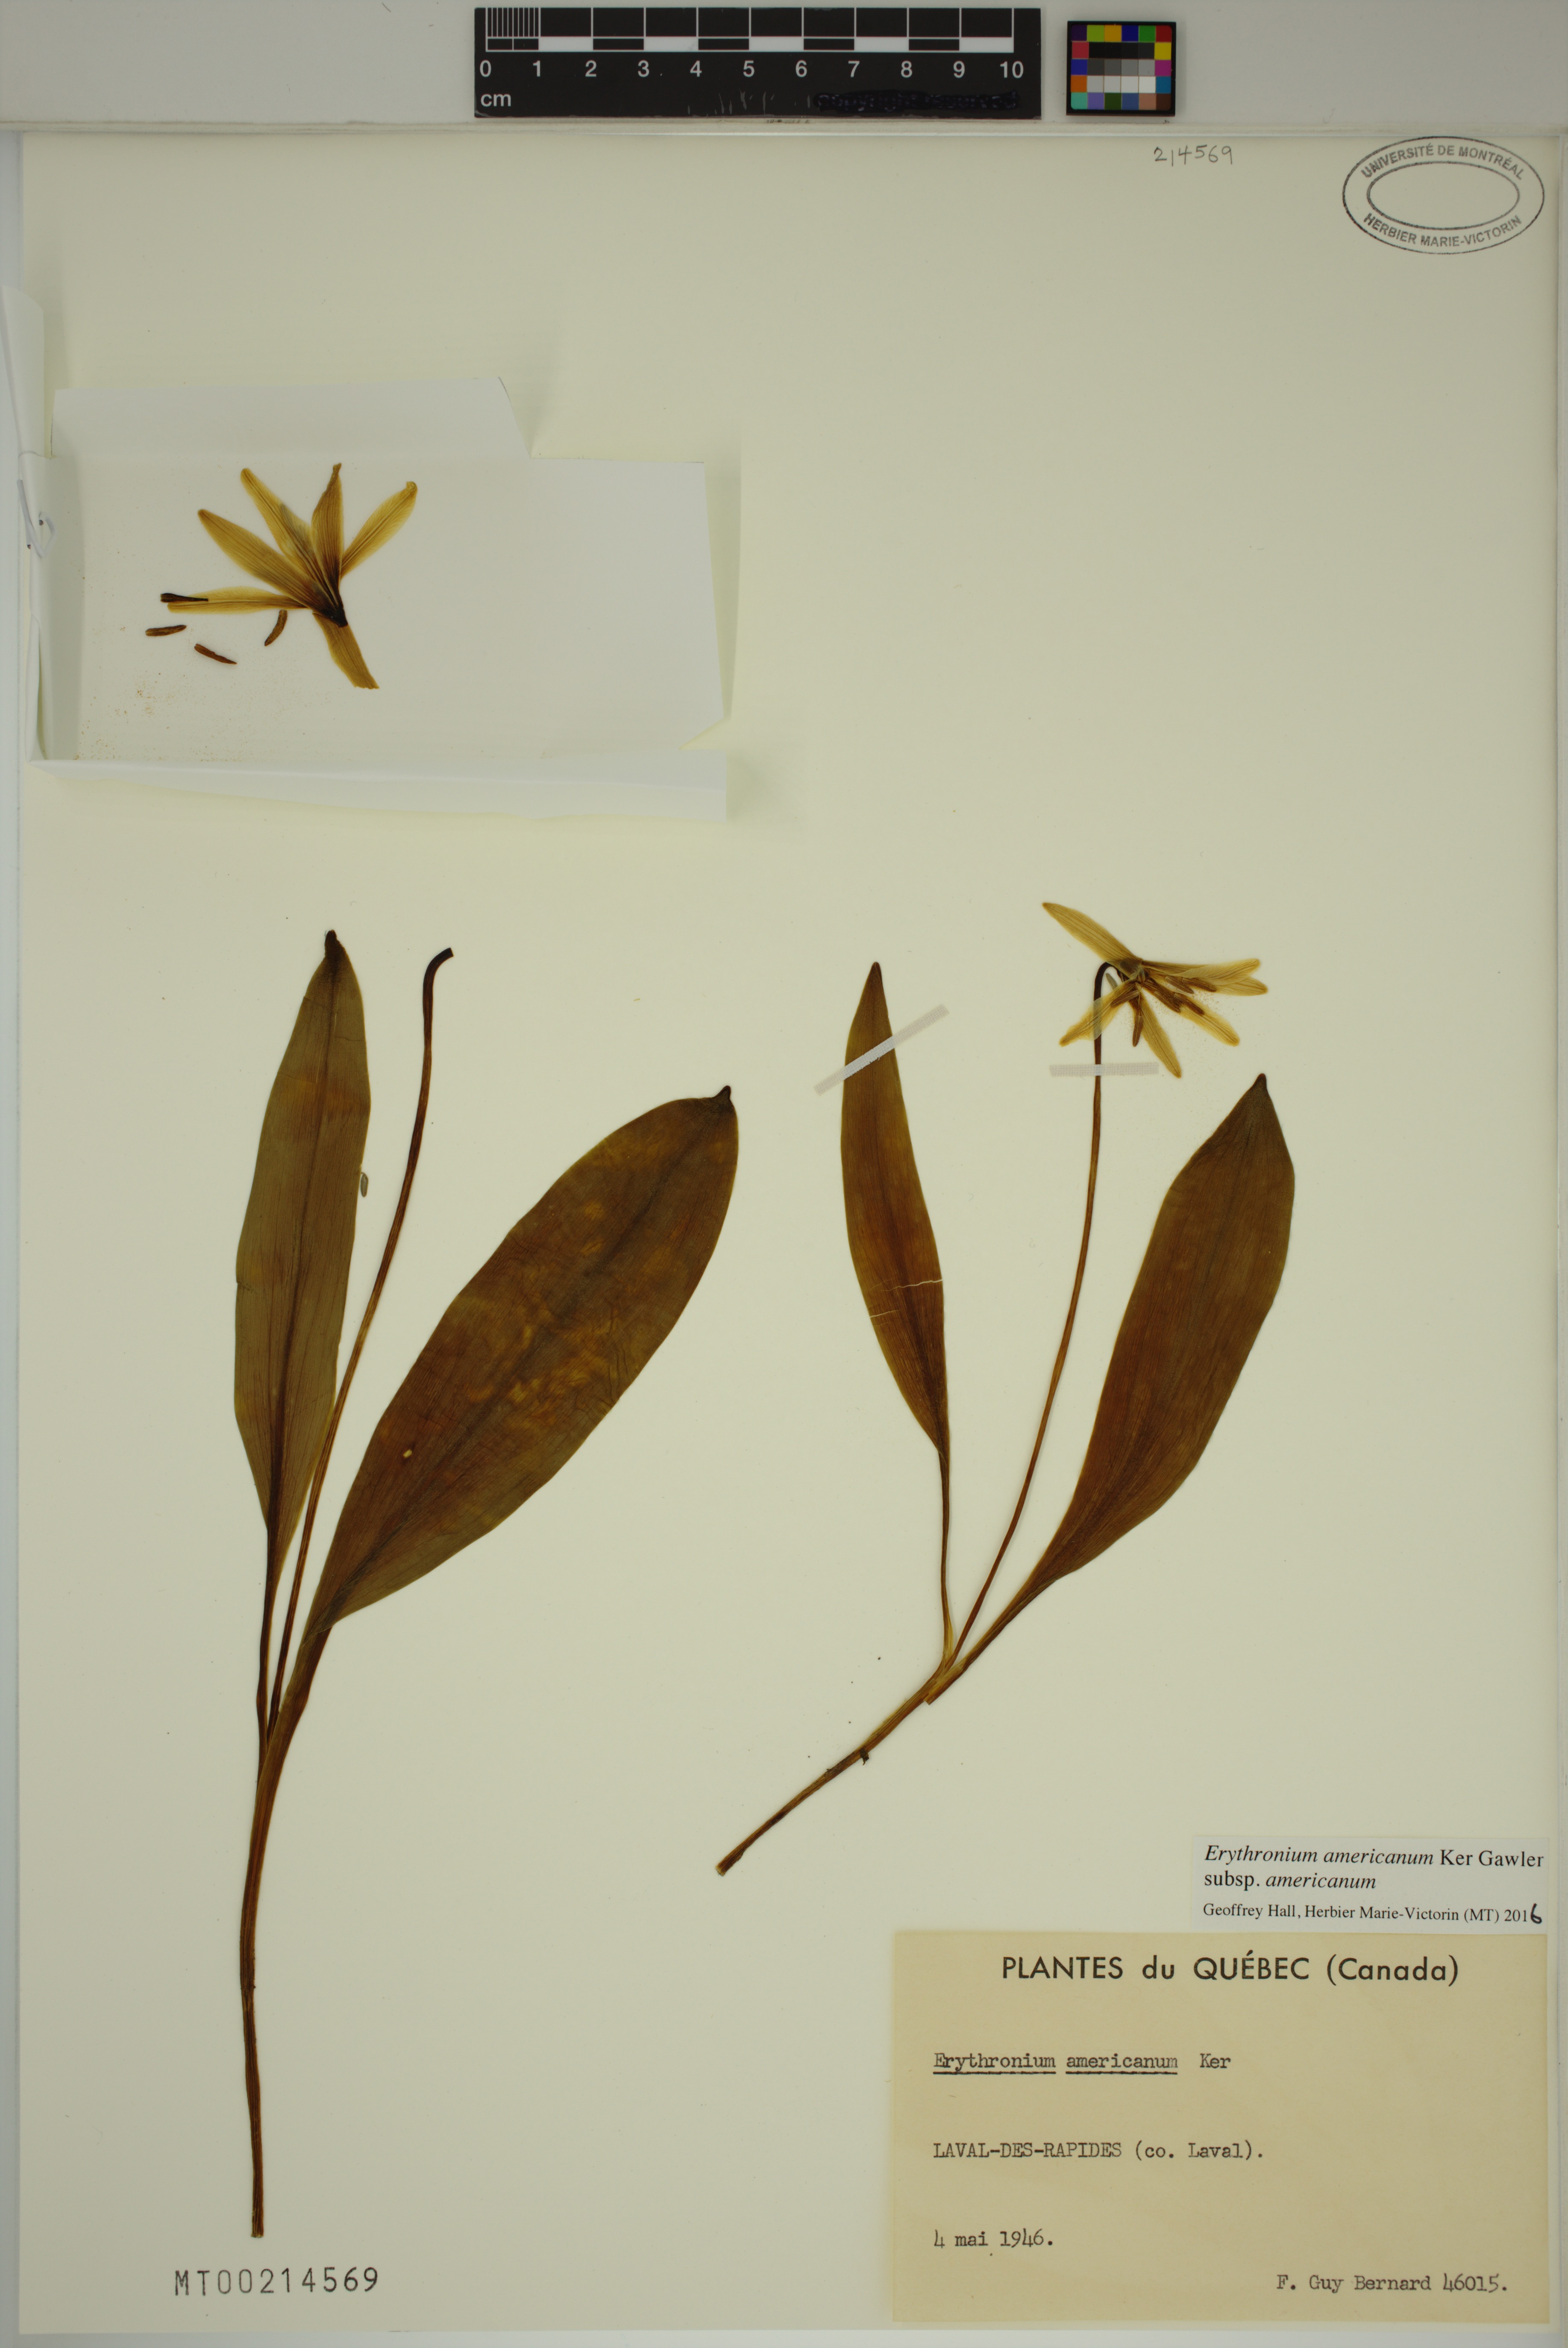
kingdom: Plantae
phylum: Tracheophyta
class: Liliopsida
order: Liliales
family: Liliaceae
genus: Erythronium
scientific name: Erythronium americanum
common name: Yellow adder's-tongue
